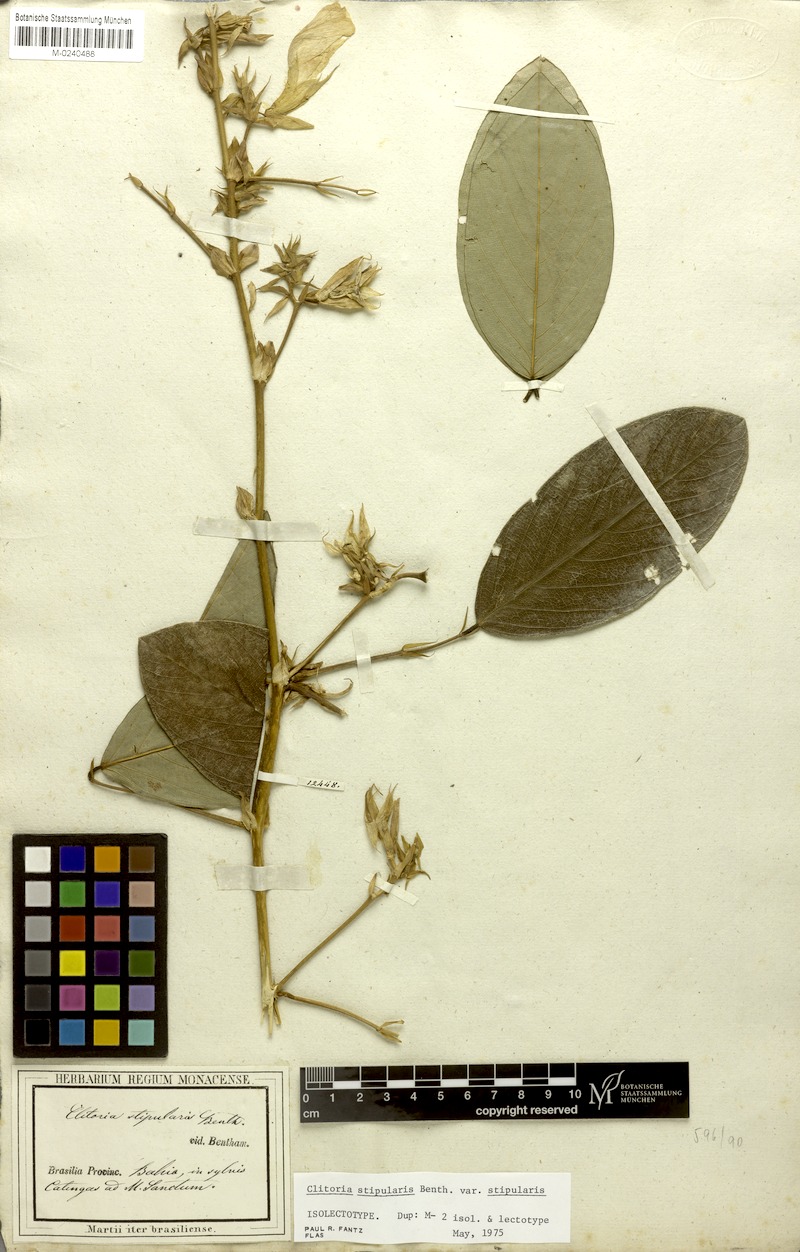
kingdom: Plantae
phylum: Tracheophyta
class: Magnoliopsida
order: Fabales
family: Fabaceae
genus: Clitoria
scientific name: Clitoria stipularis
